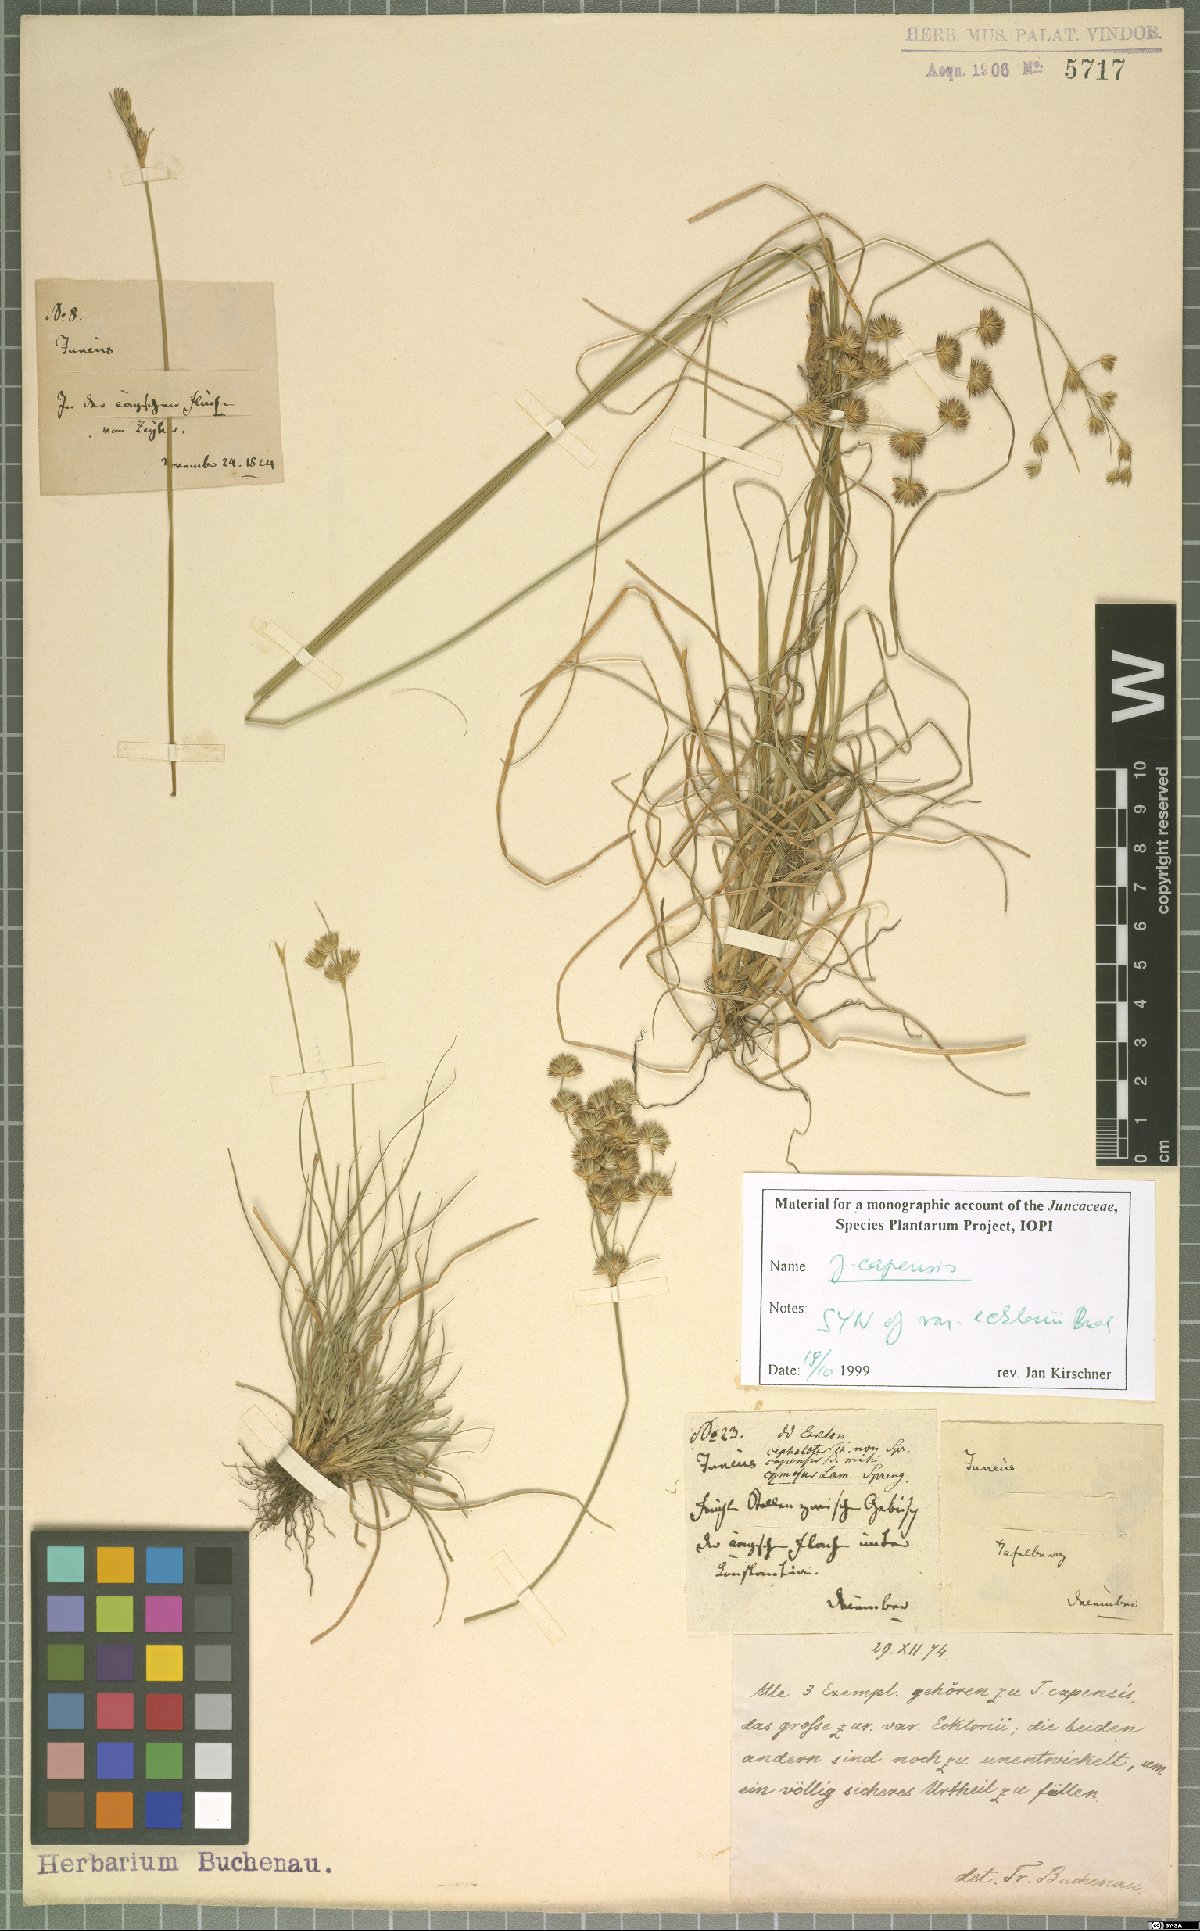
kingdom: Plantae
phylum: Tracheophyta
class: Liliopsida
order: Poales
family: Juncaceae
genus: Juncus
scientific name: Juncus capensis
